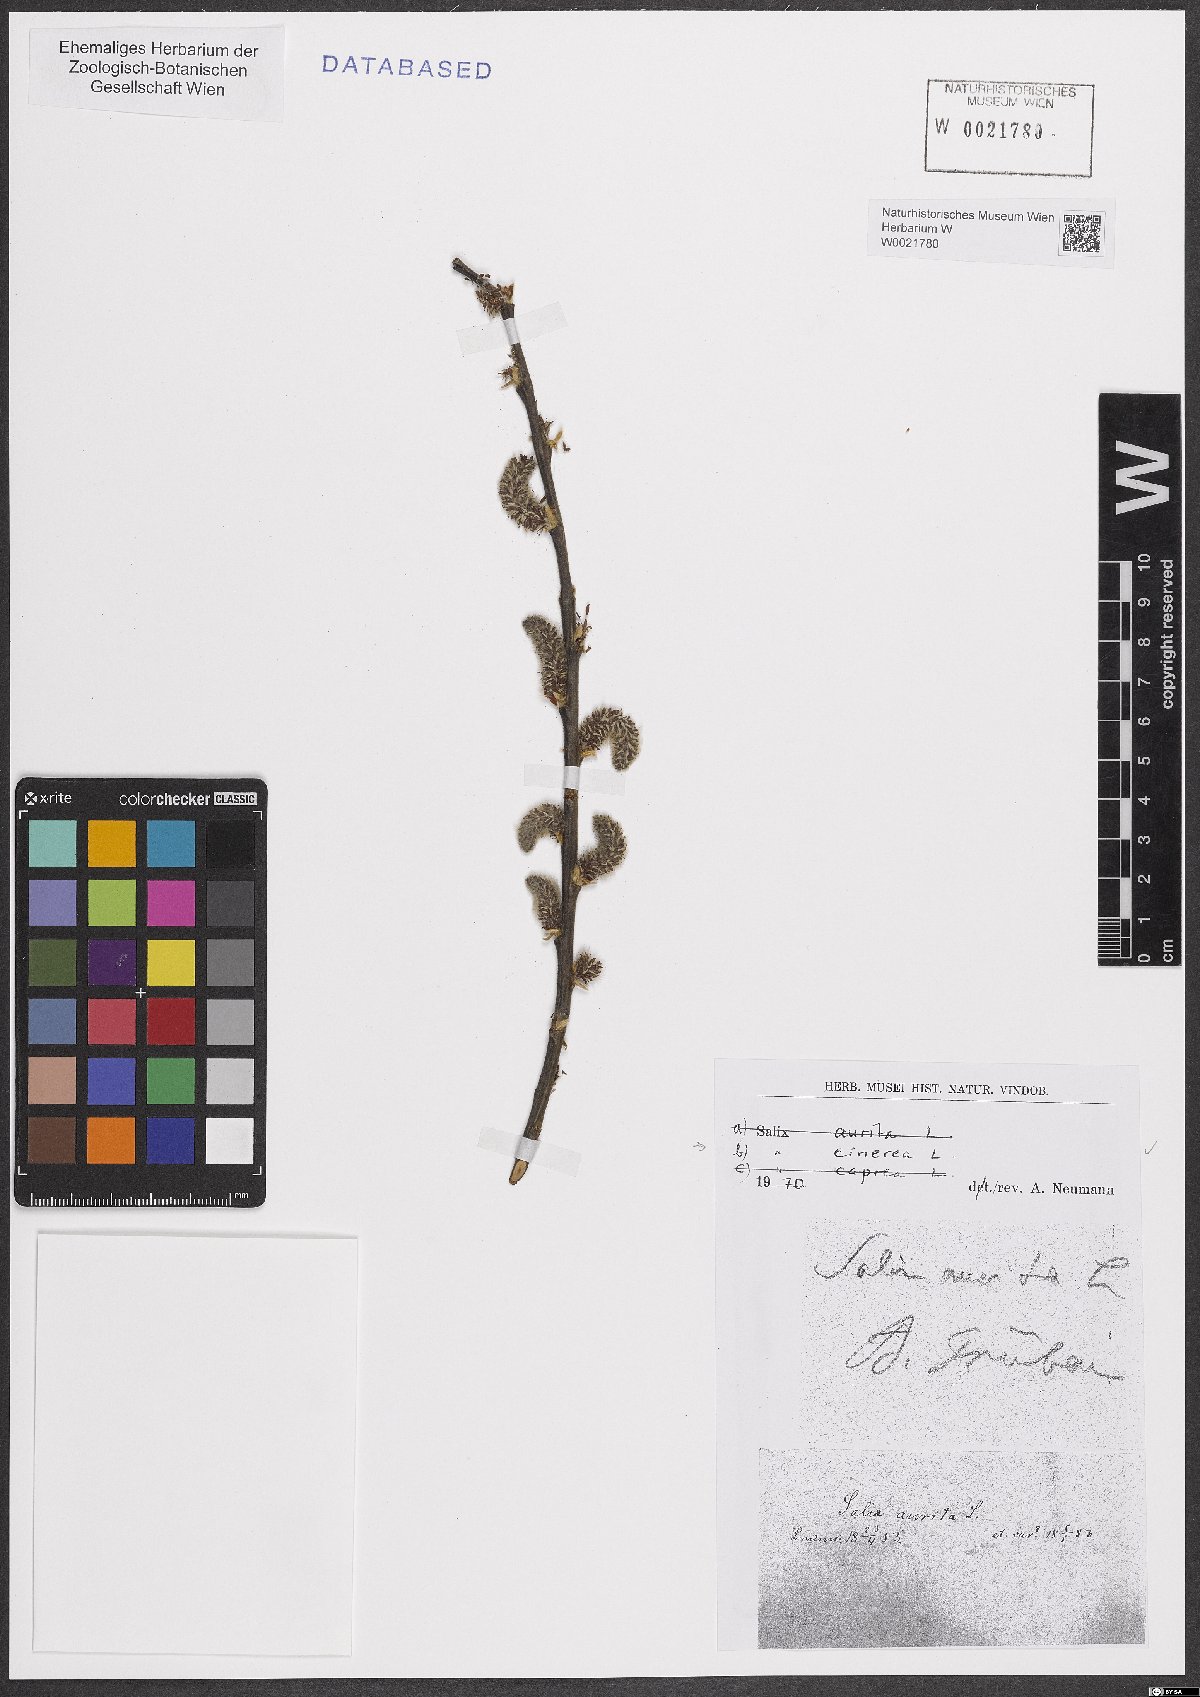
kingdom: Plantae
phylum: Tracheophyta
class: Magnoliopsida
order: Malpighiales
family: Salicaceae
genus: Salix
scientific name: Salix cinerea
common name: Common sallow
